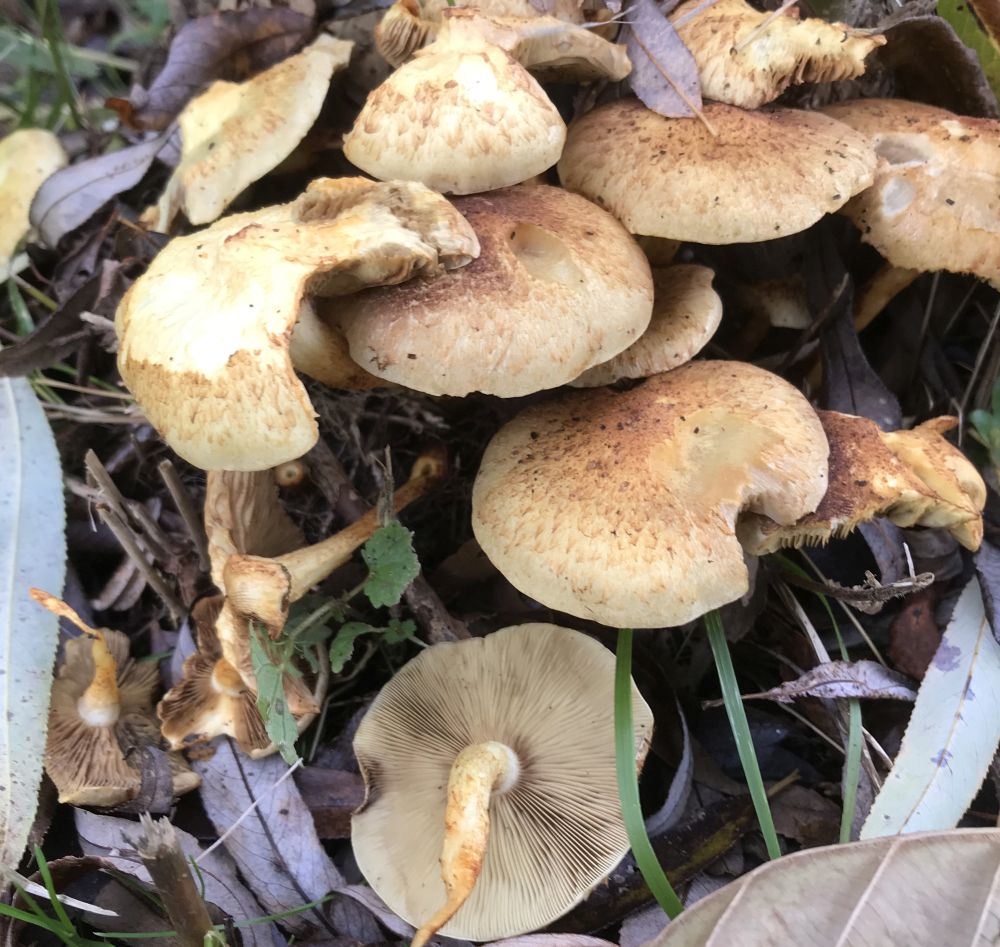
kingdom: Fungi
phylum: Basidiomycota
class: Agaricomycetes
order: Agaricales
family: Strophariaceae
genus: Pholiota
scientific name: Pholiota squarrosa
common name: krumskællet skælhat
